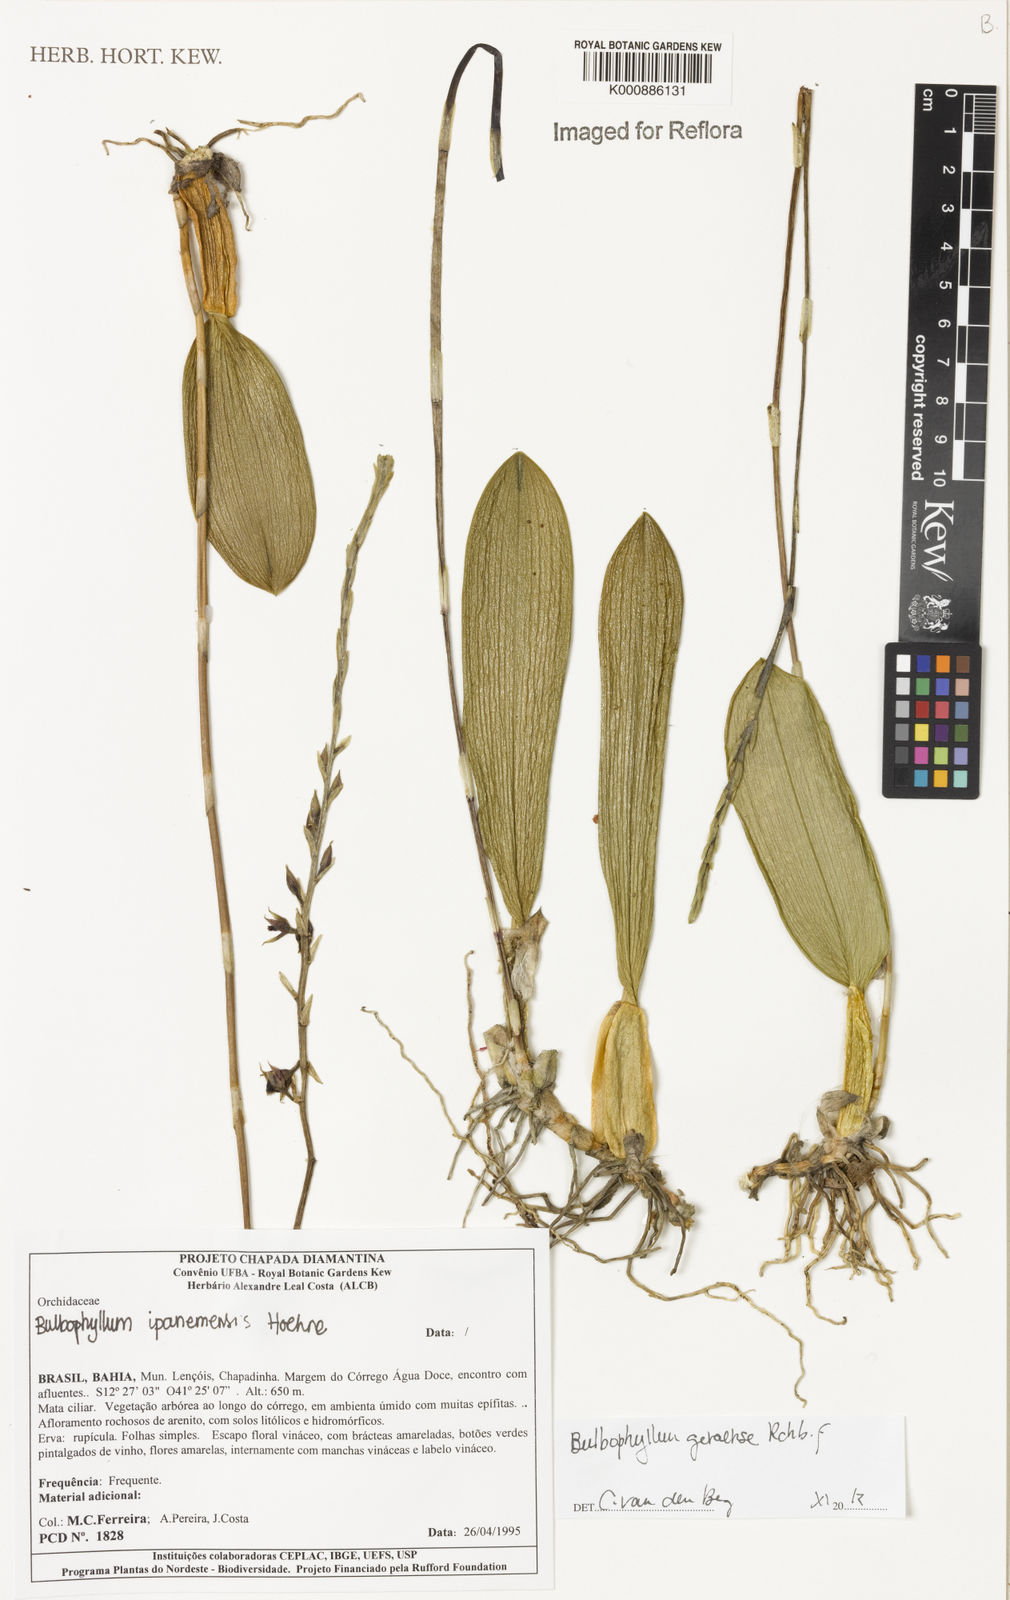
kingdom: Plantae
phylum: Tracheophyta
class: Liliopsida
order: Asparagales
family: Orchidaceae
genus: Bulbophyllum
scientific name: Bulbophyllum geraense
